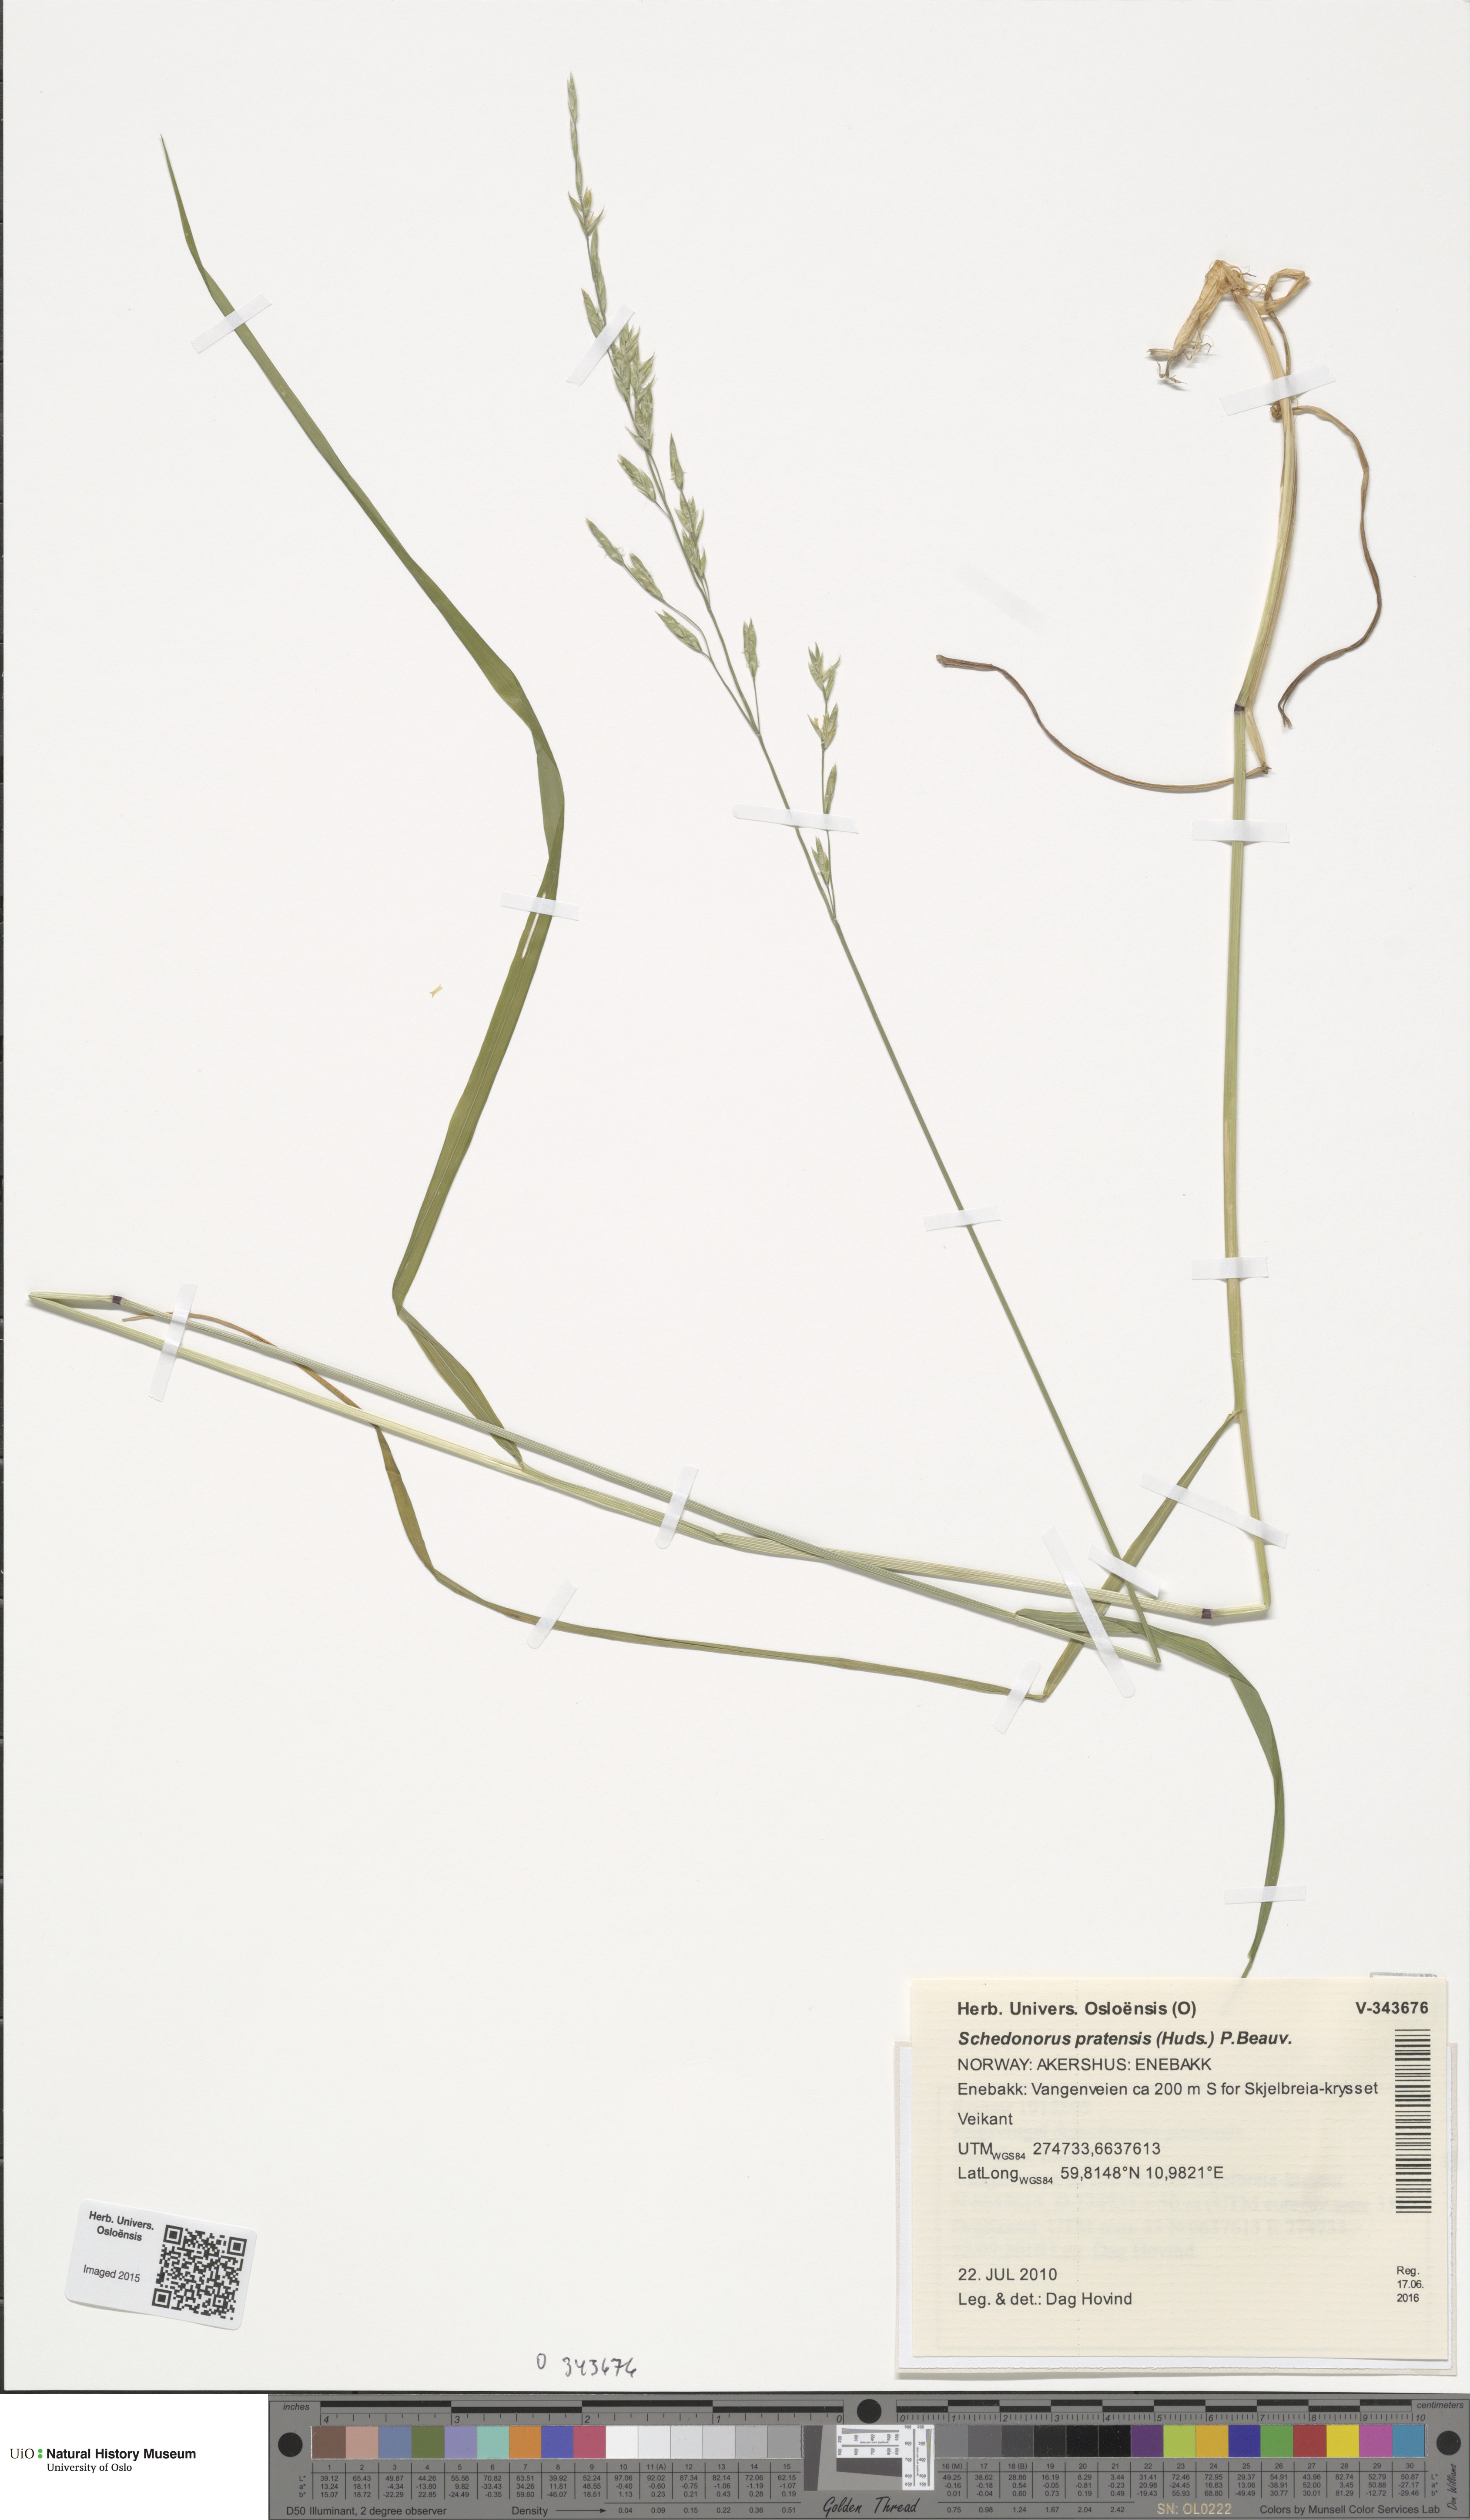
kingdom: Plantae
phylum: Tracheophyta
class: Liliopsida
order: Poales
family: Poaceae
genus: Lolium
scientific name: Lolium pratense
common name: Dover grass
